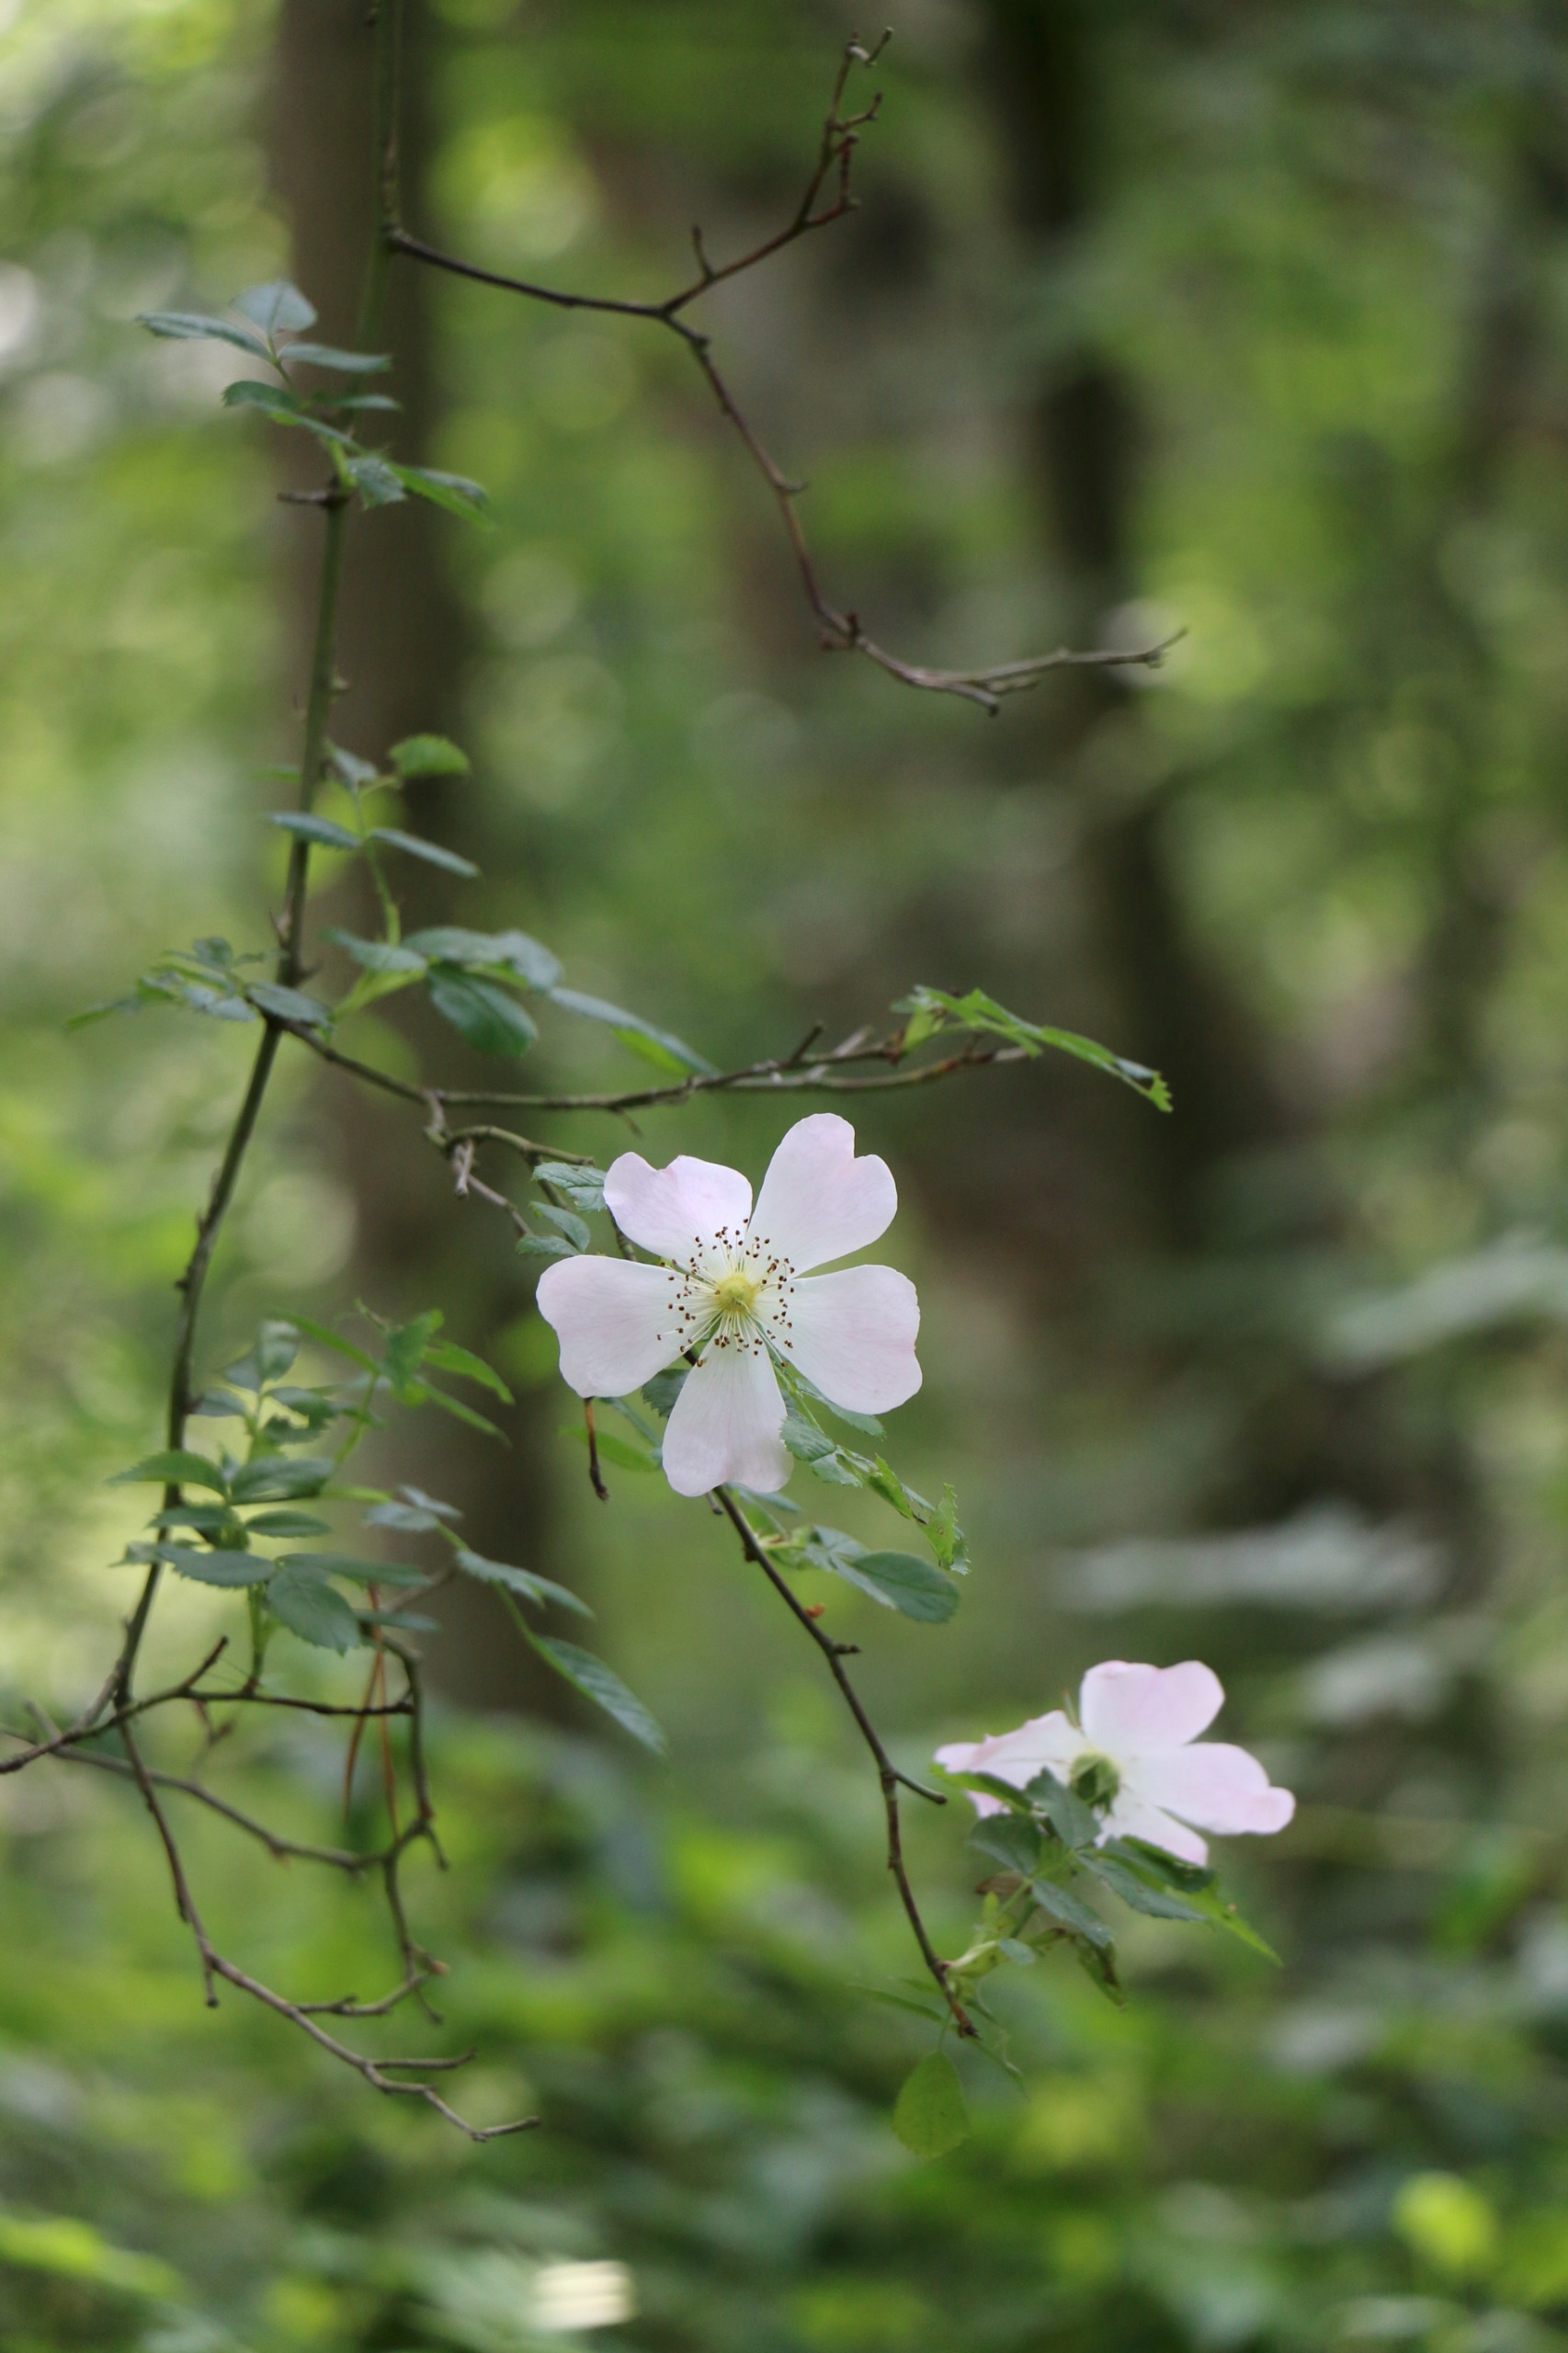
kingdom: Plantae
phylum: Tracheophyta
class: Magnoliopsida
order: Rosales
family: Rosaceae
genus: Rosa
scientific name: Rosa canina
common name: Hunde-rose
